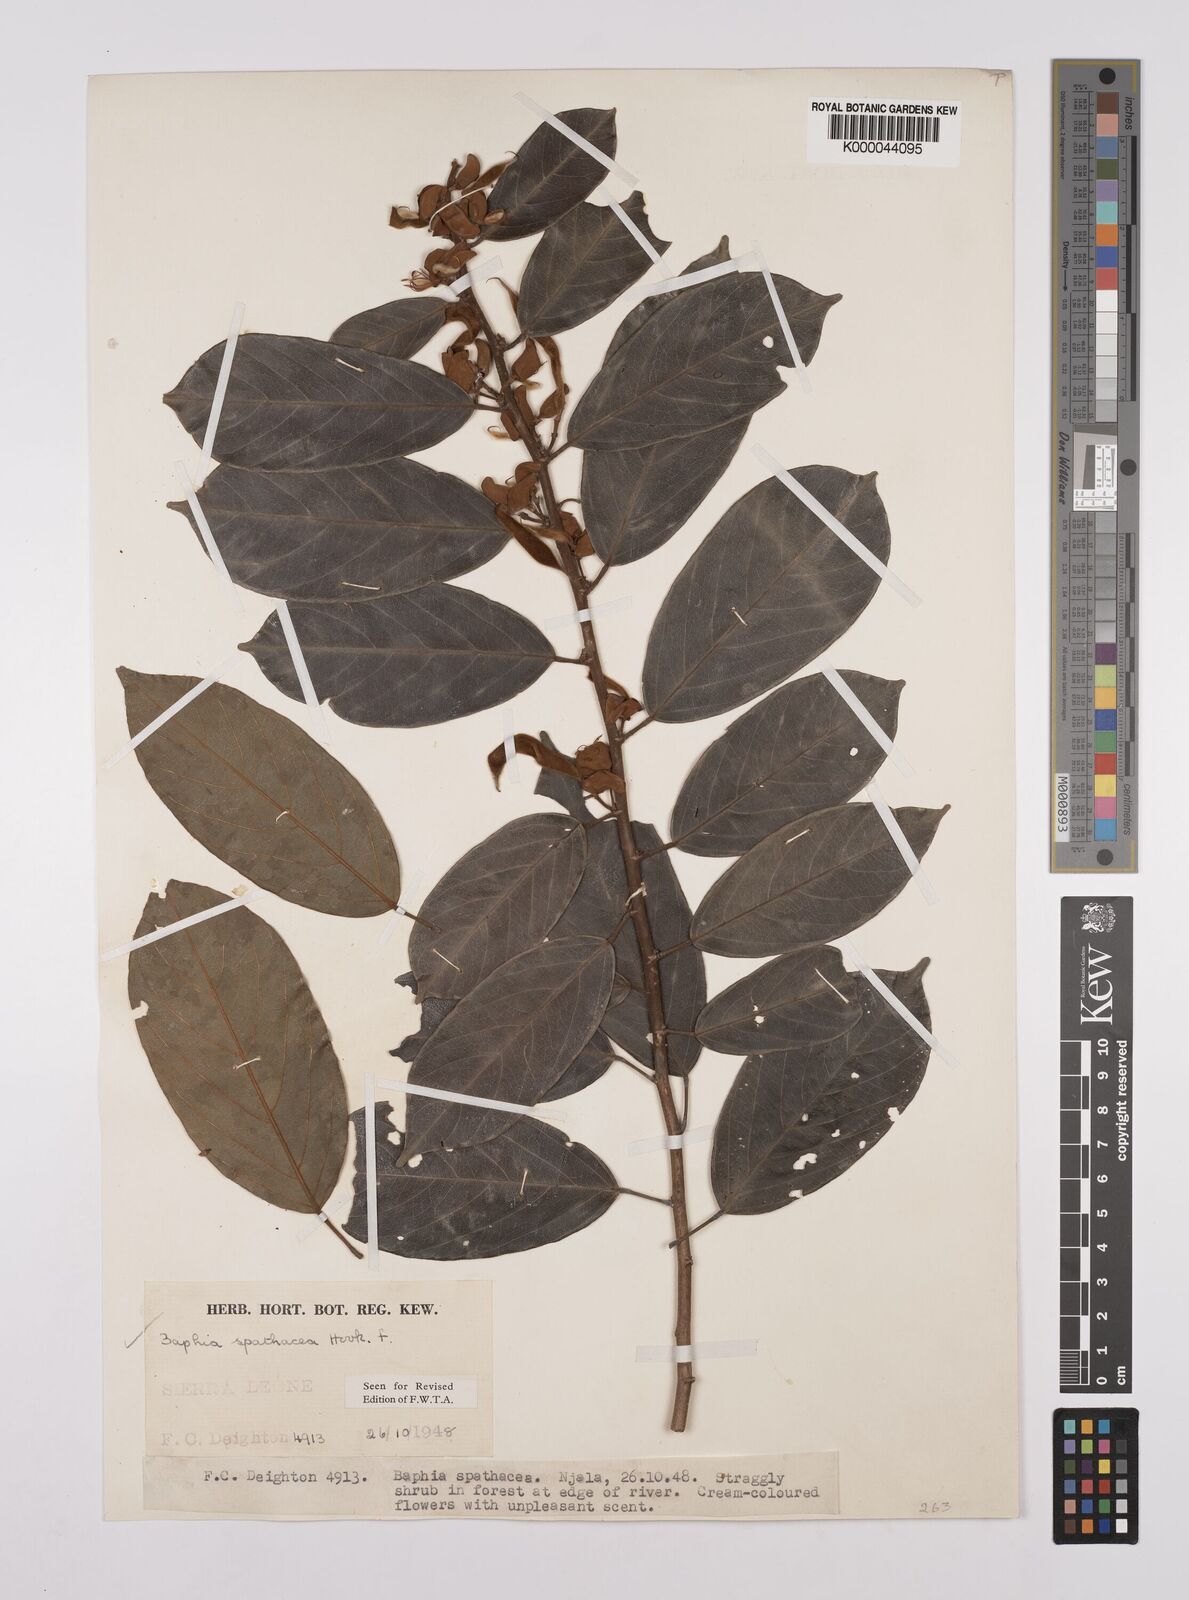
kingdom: Plantae
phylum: Tracheophyta
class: Magnoliopsida
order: Fabales
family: Fabaceae
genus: Baphia
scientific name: Baphia spathacea
